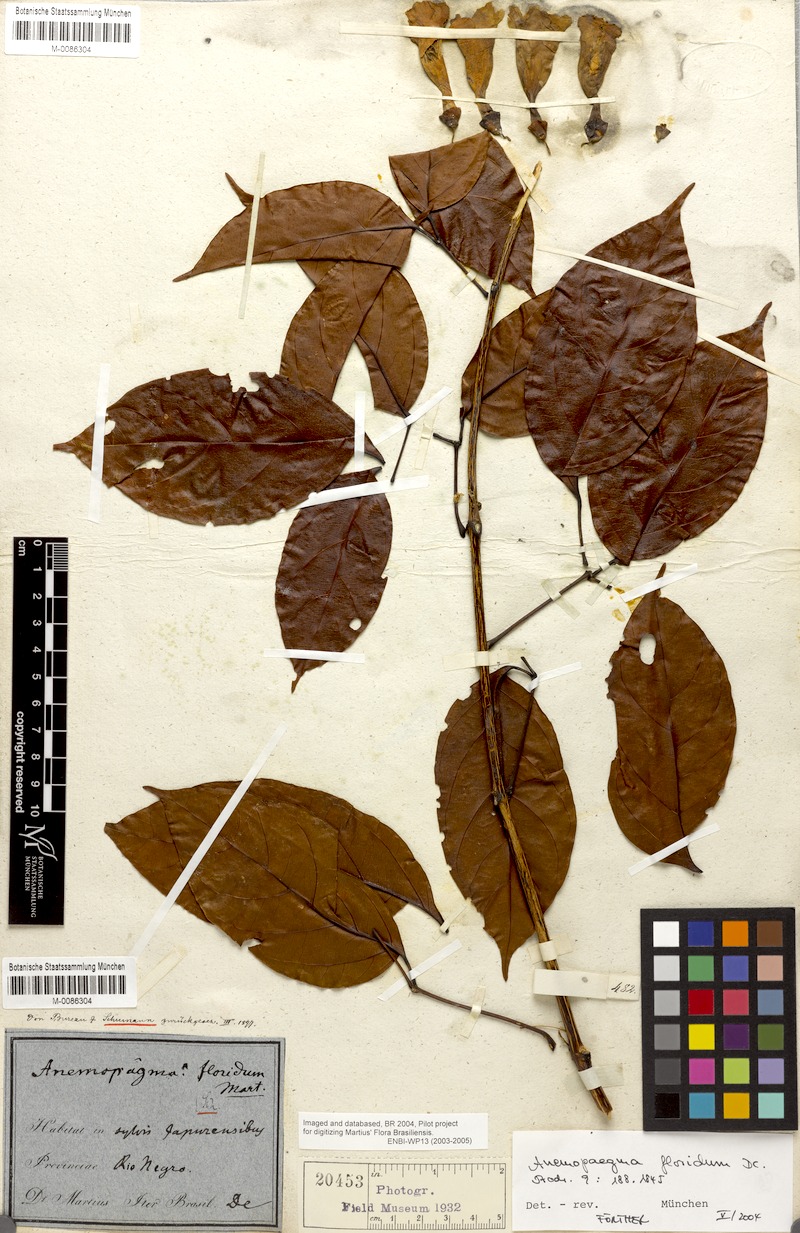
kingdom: Plantae
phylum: Tracheophyta
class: Magnoliopsida
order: Lamiales
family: Bignoniaceae
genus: Anemopaegma
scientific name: Anemopaegma floridum
